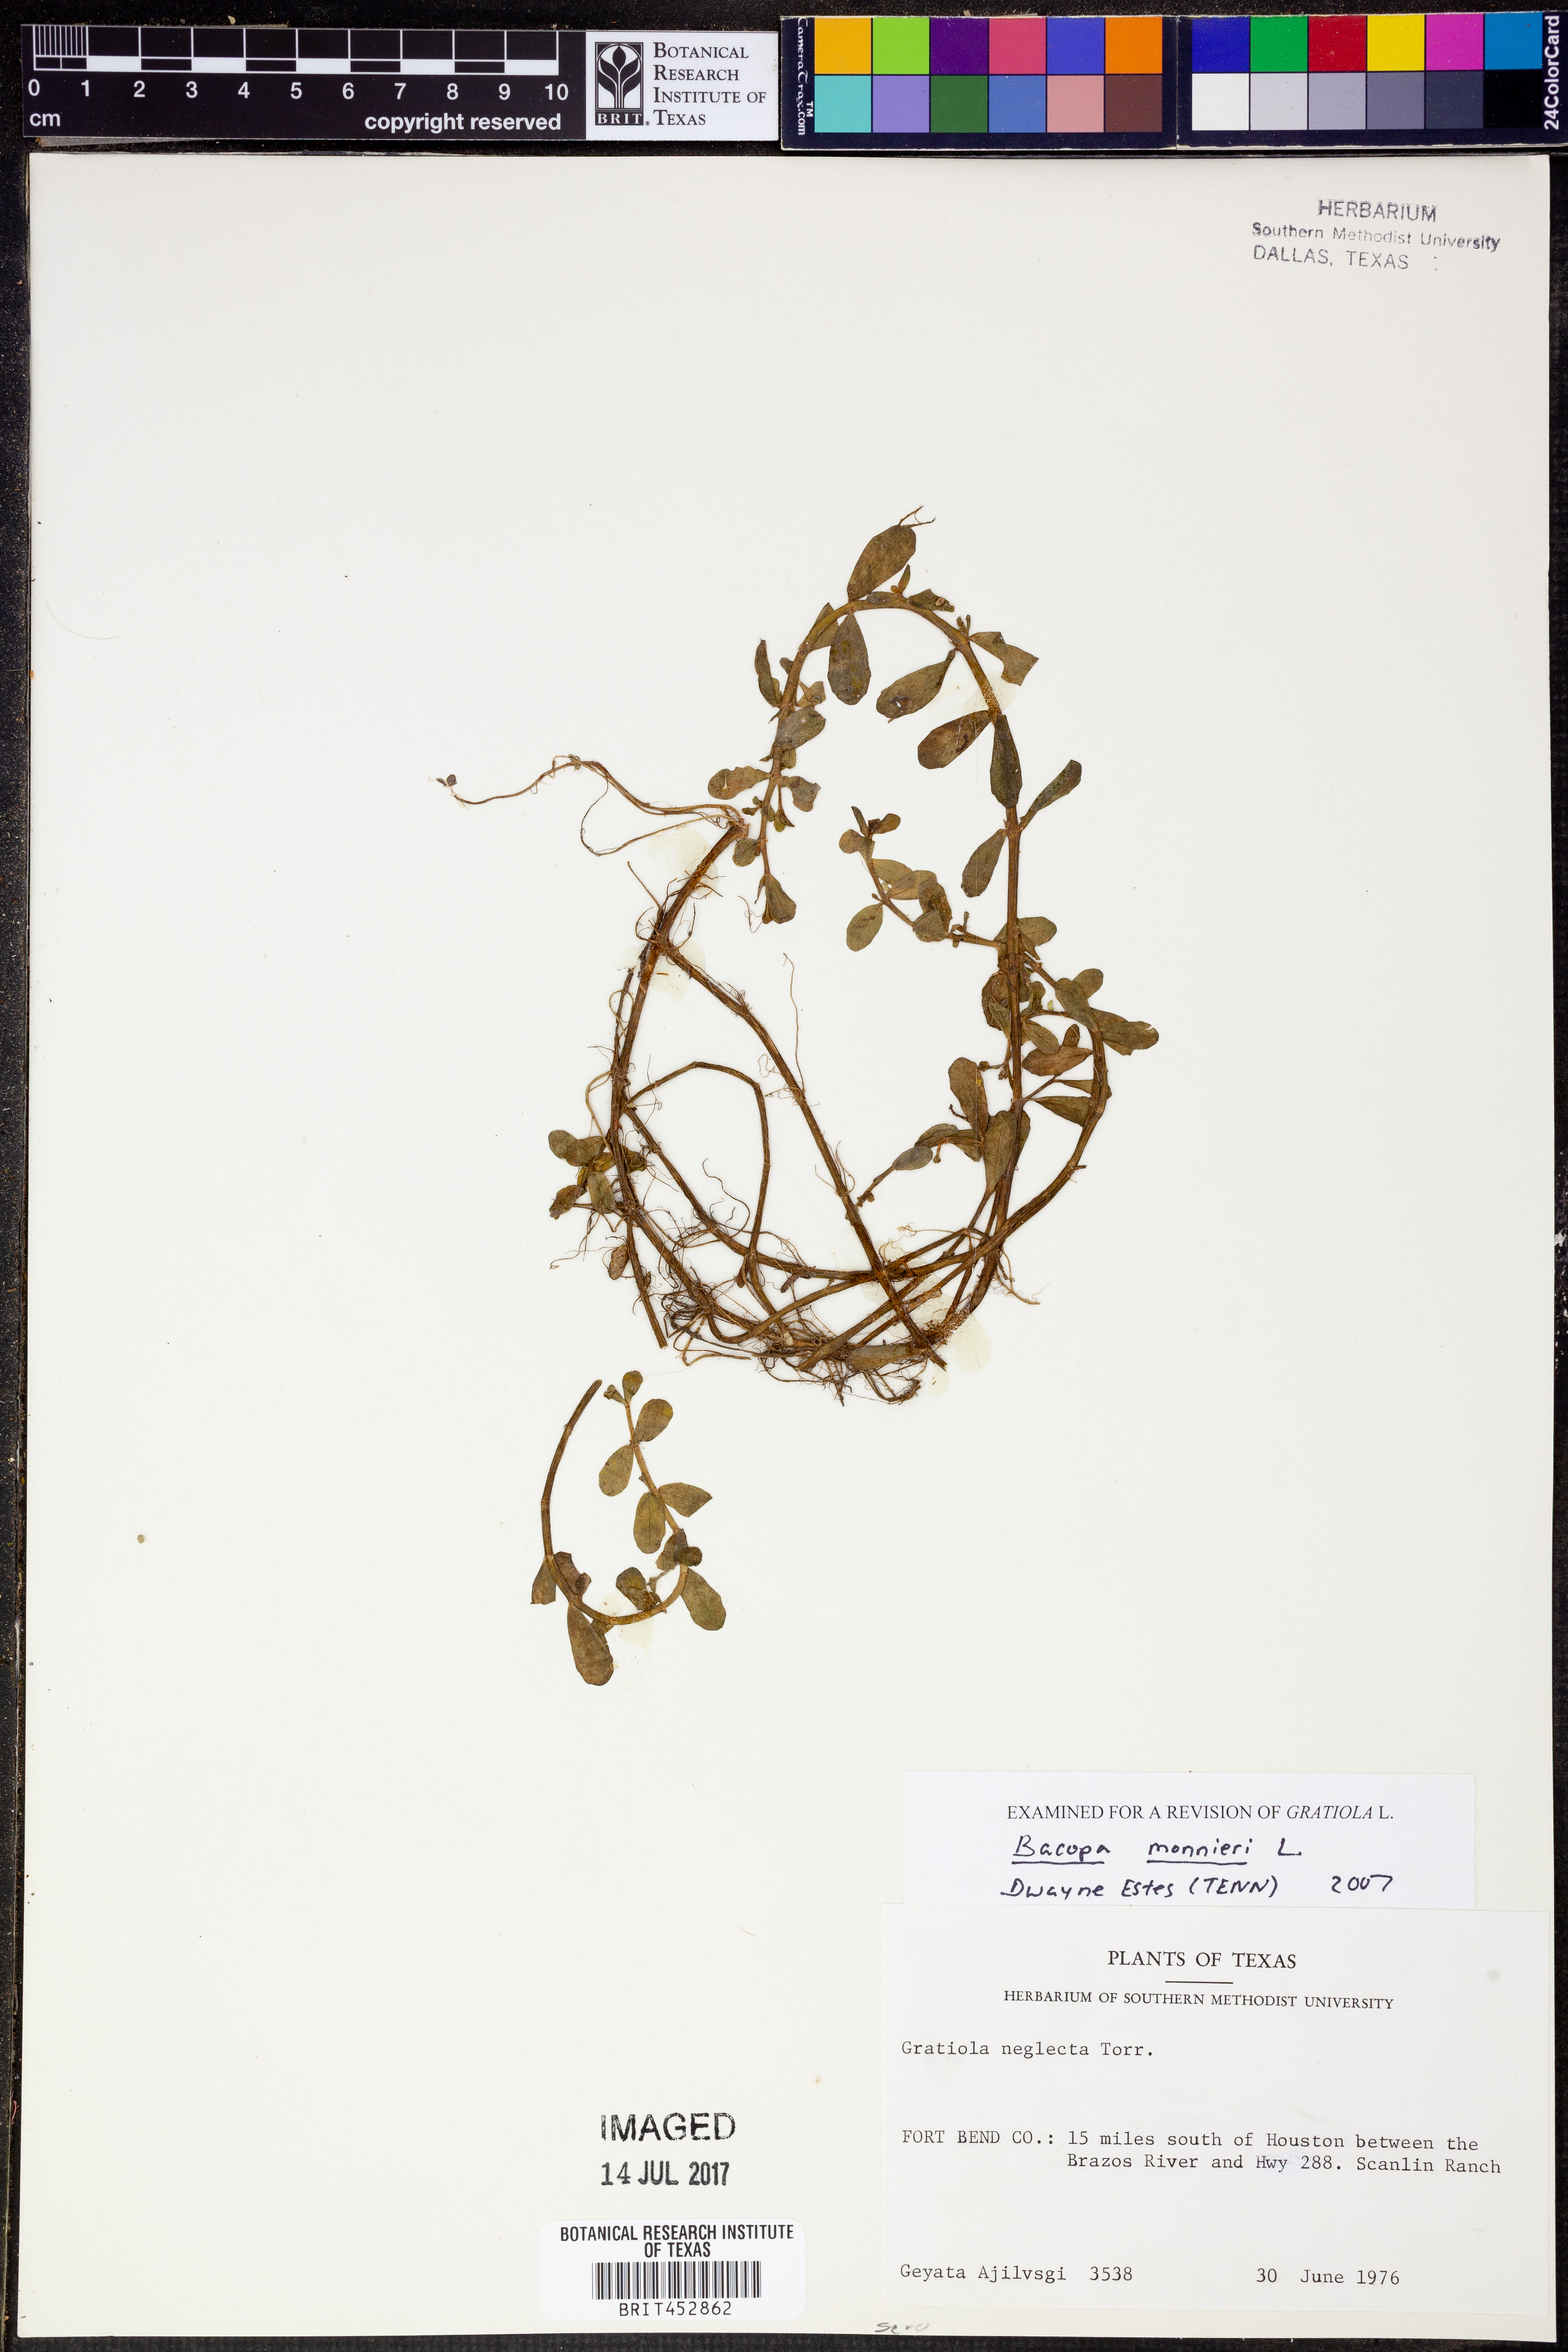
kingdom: Plantae
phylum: Tracheophyta
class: Magnoliopsida
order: Lamiales
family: Plantaginaceae
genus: Bacopa
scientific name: Bacopa monnieri
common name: Indian-pennywort
